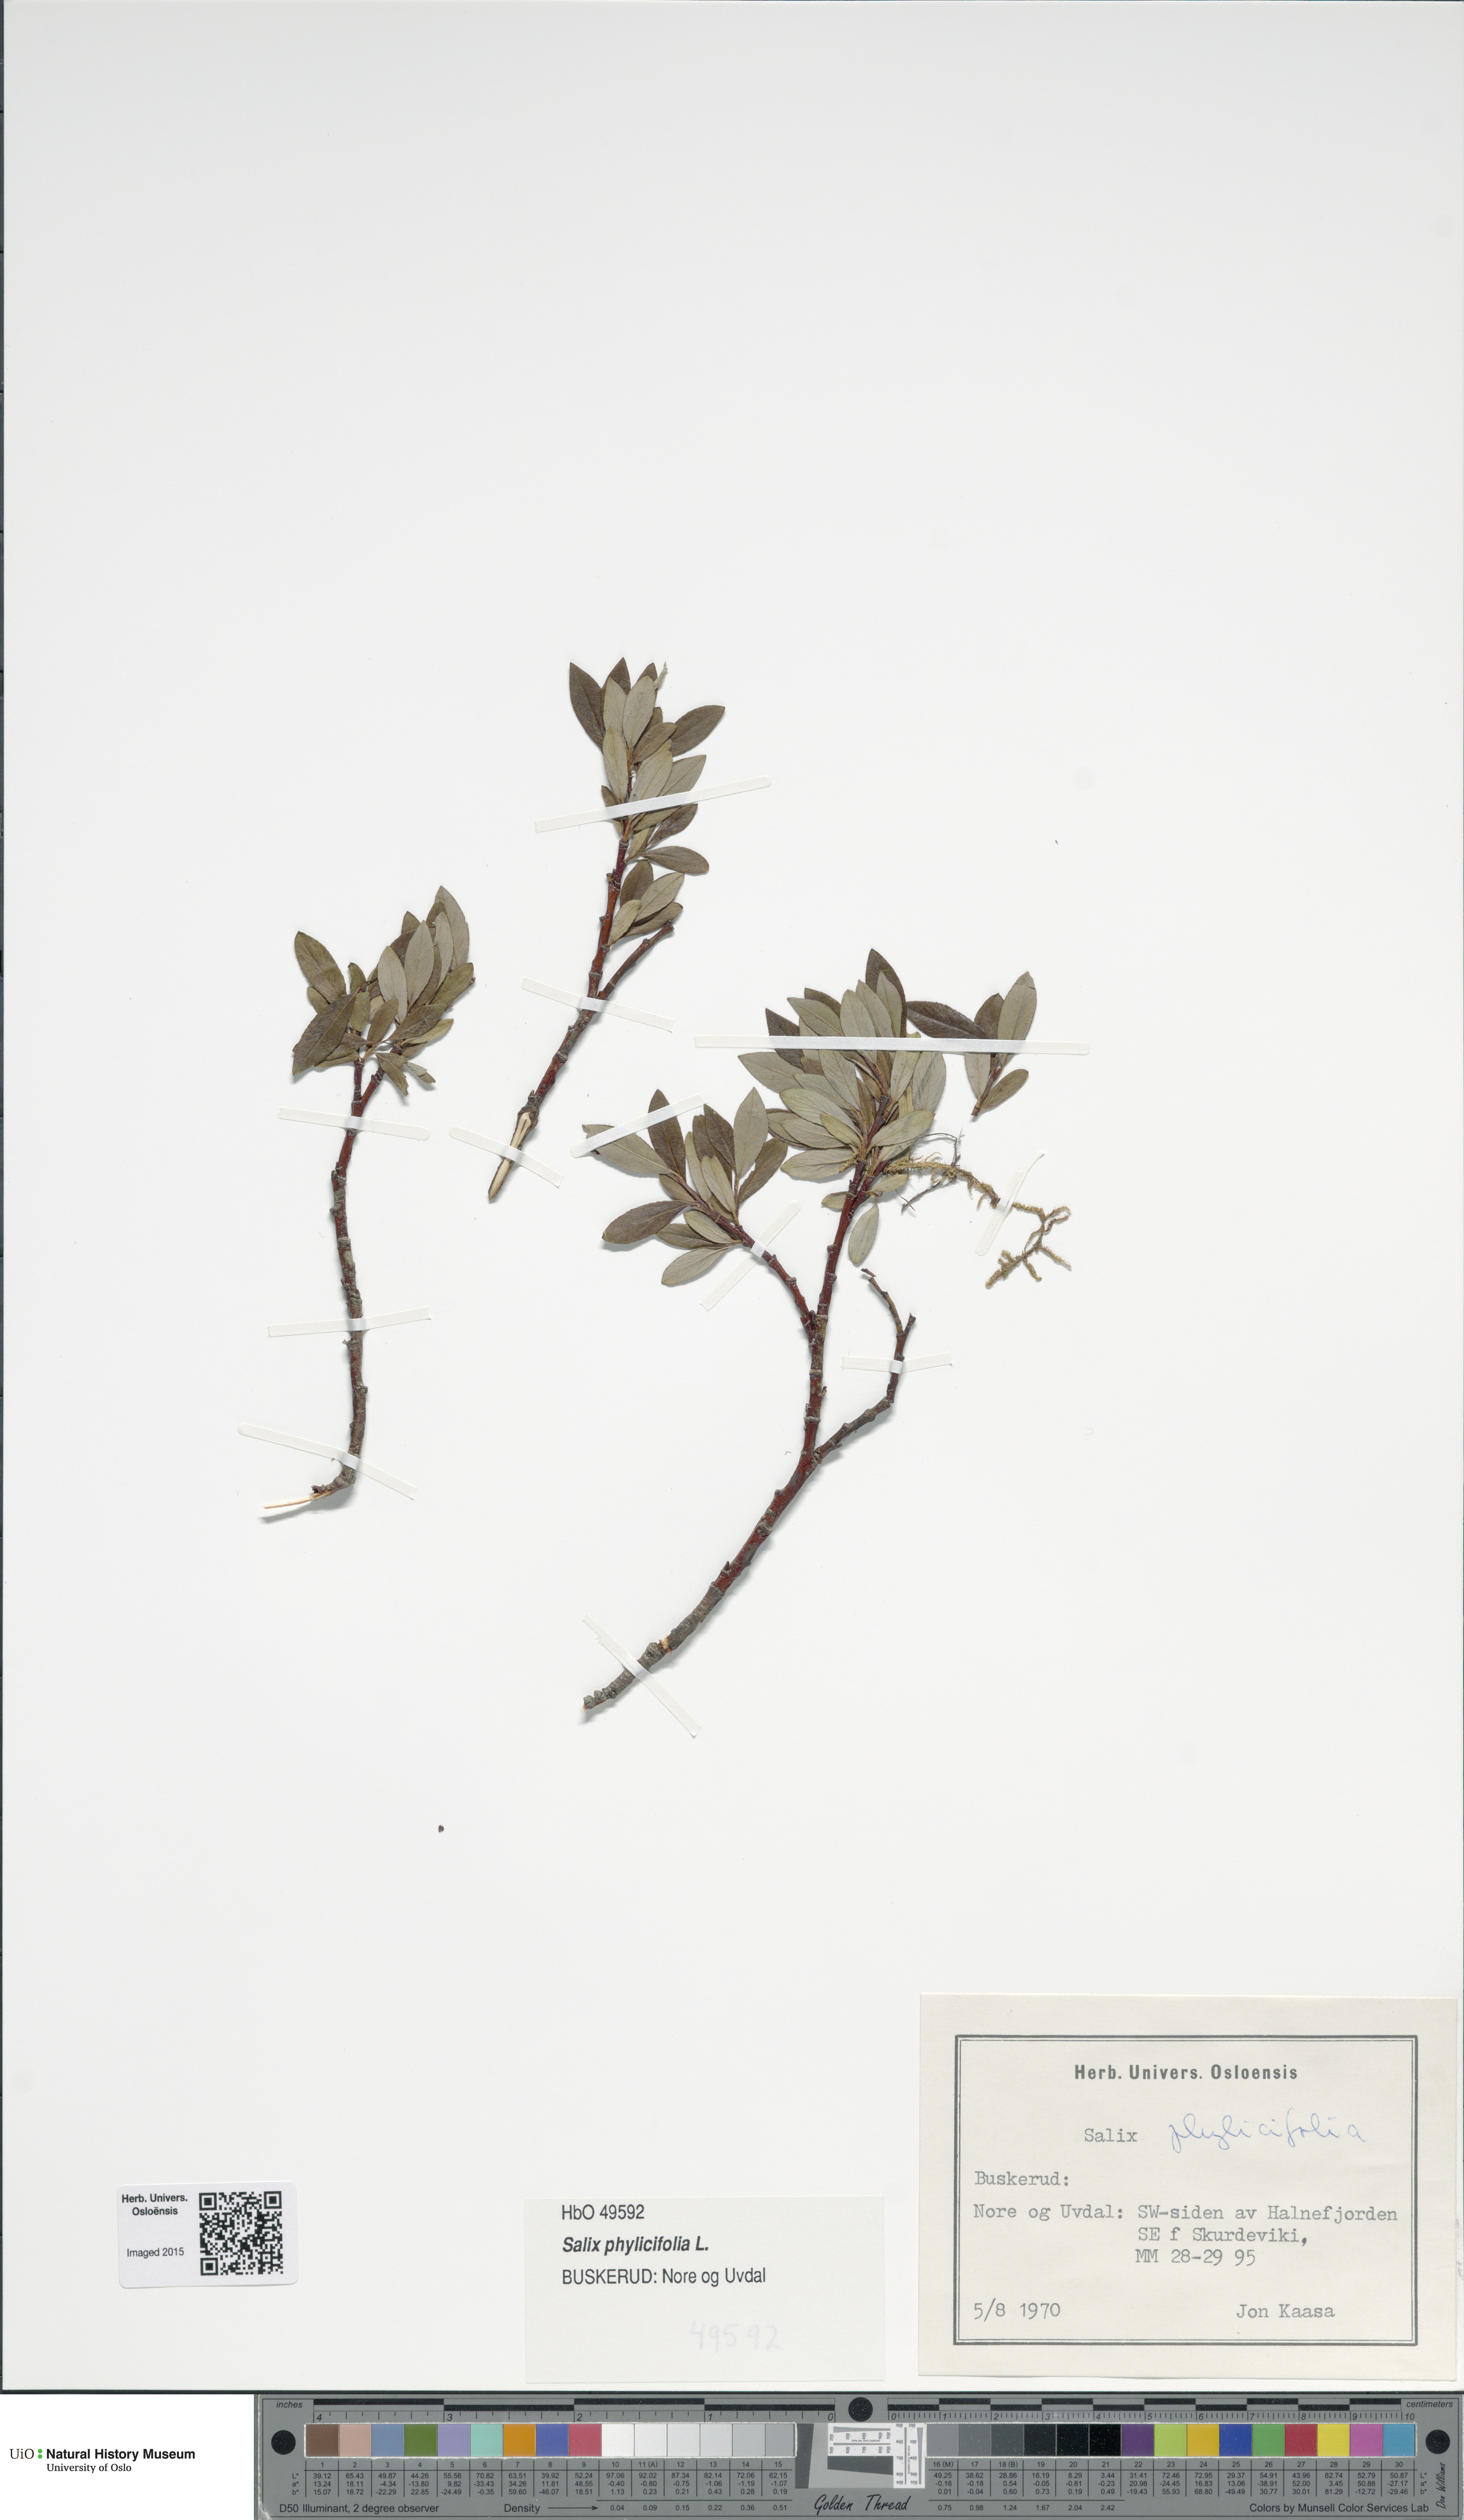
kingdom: Plantae
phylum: Tracheophyta
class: Magnoliopsida
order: Malpighiales
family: Salicaceae
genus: Salix
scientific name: Salix phylicifolia
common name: Tea-leaved willow
